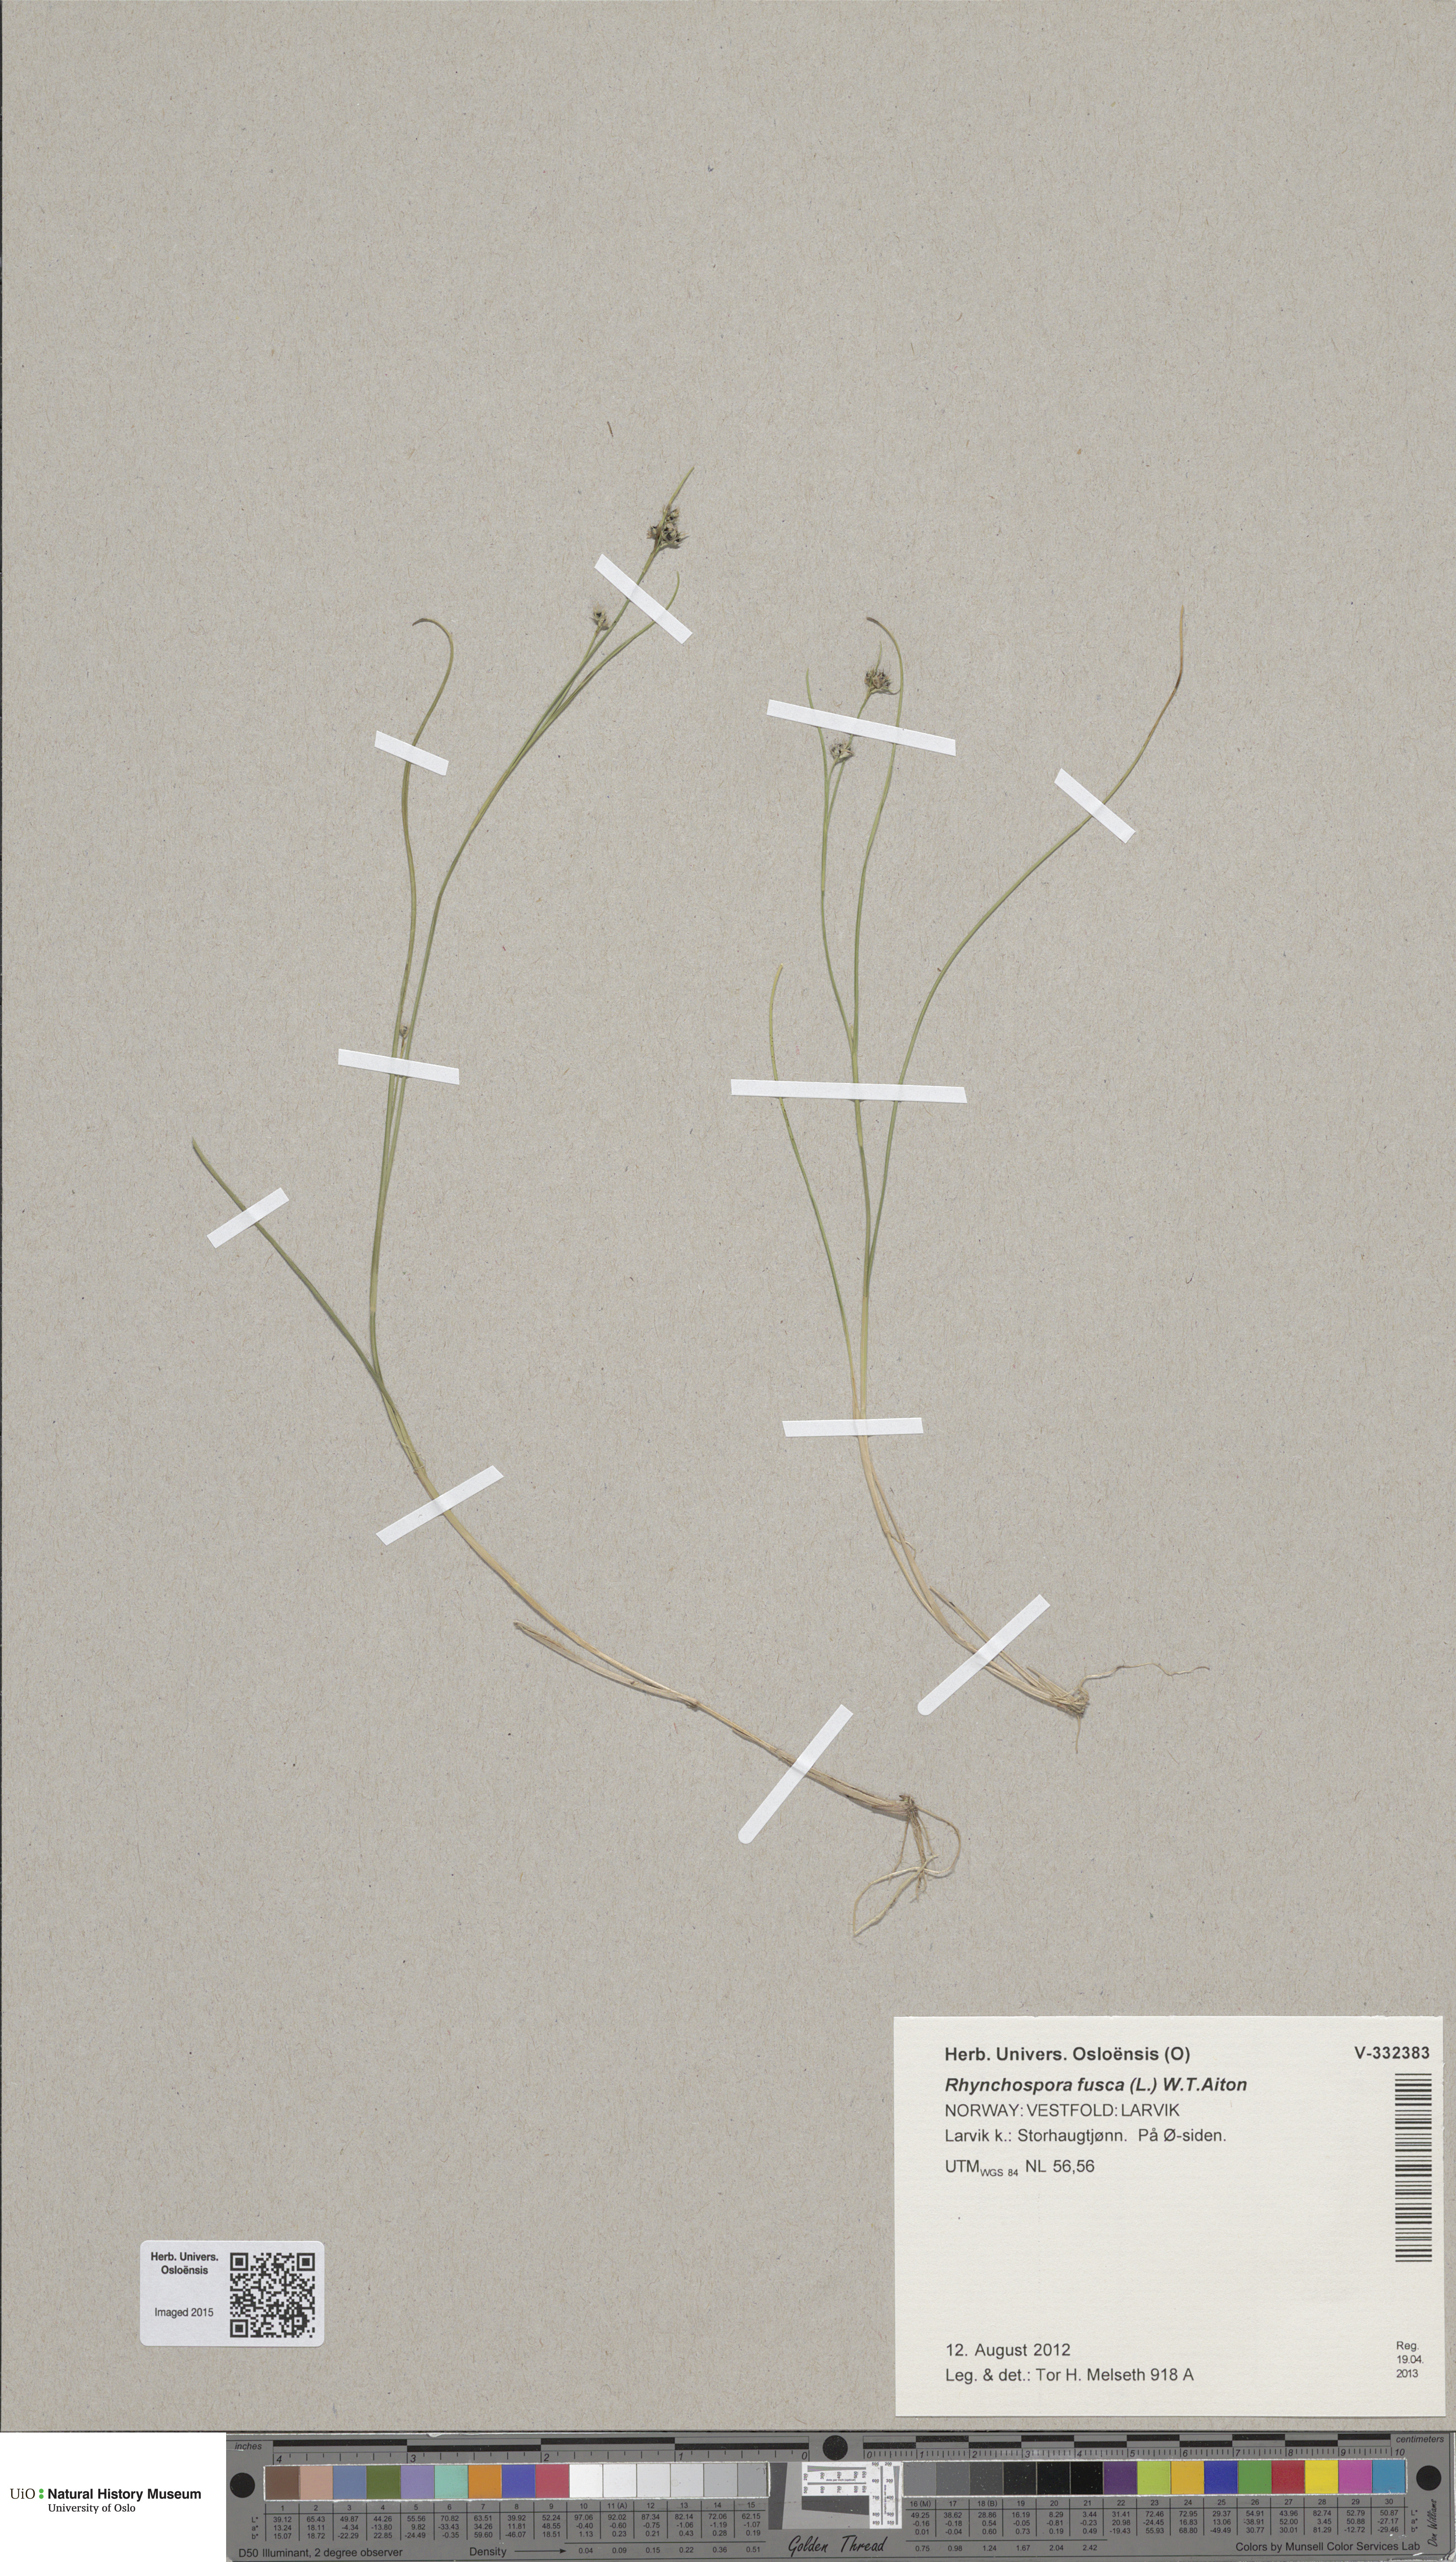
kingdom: Plantae
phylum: Tracheophyta
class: Liliopsida
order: Poales
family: Cyperaceae
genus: Rhynchospora
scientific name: Rhynchospora fusca
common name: Brown beak-sedge
